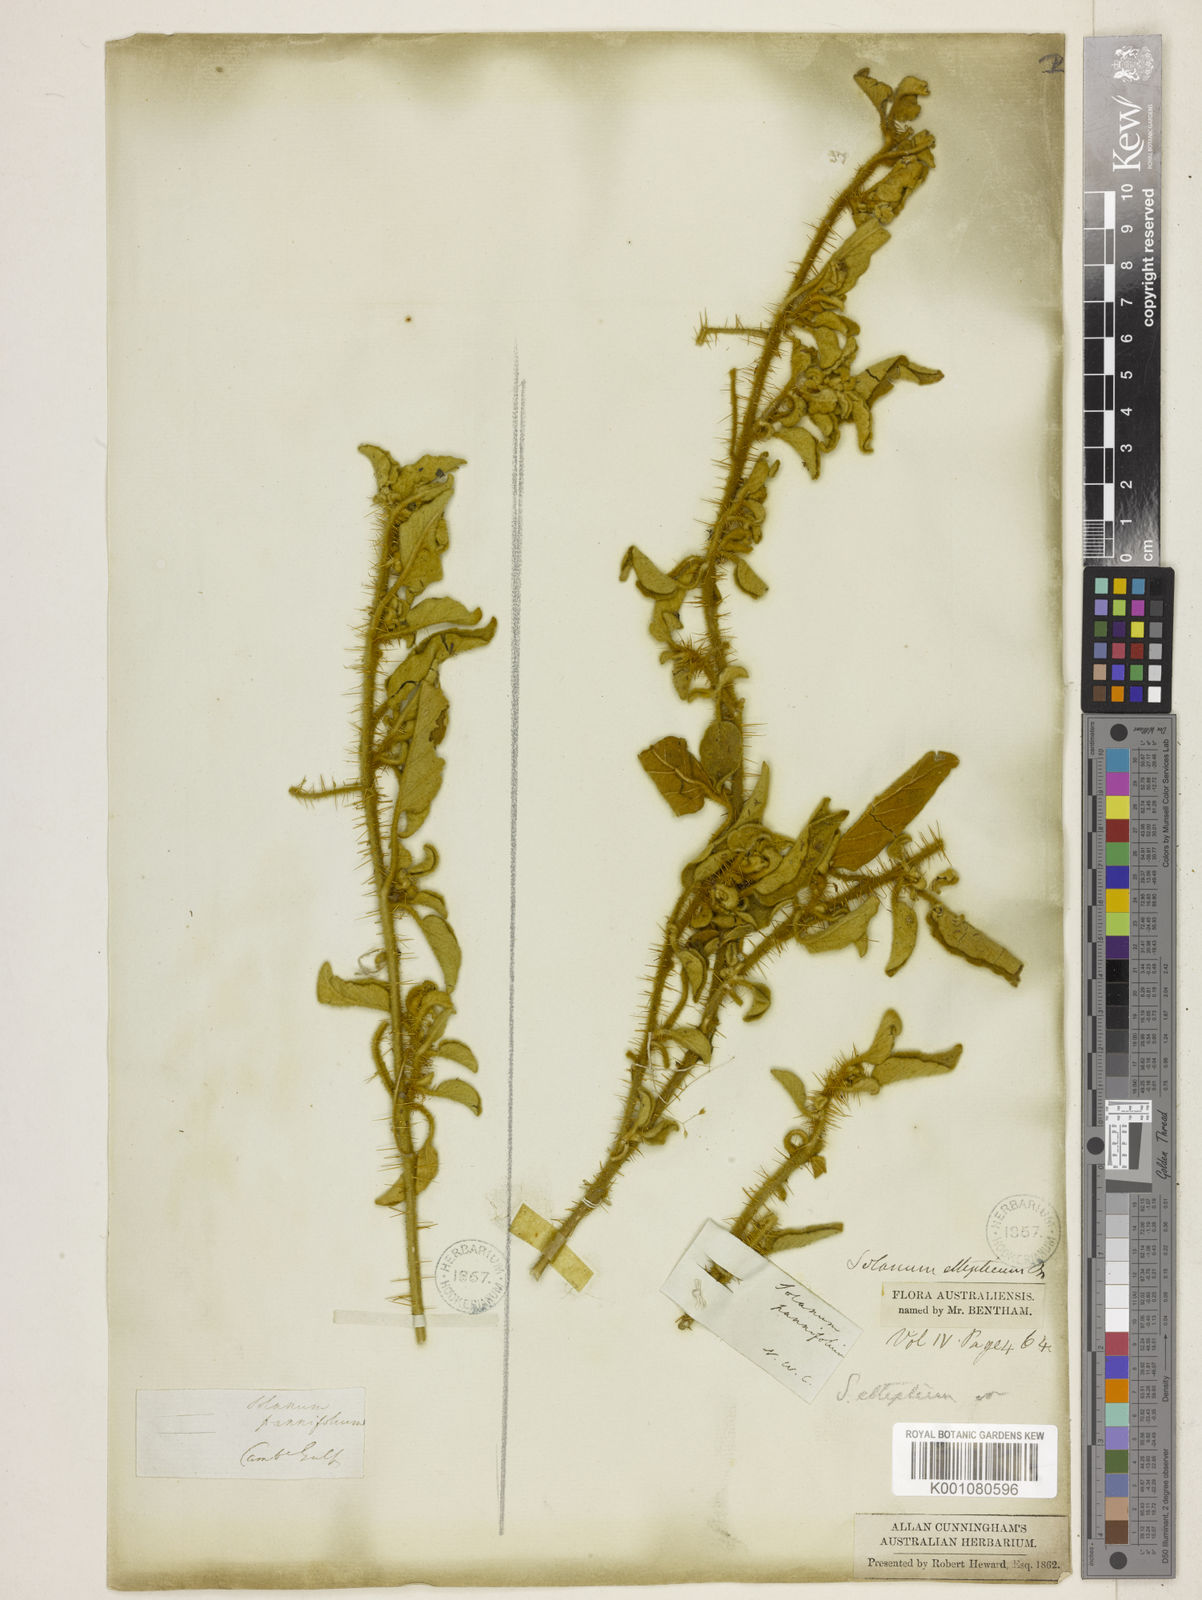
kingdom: Plantae
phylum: Tracheophyta
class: Magnoliopsida
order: Solanales
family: Solanaceae
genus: Solanum
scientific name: Solanum ellipticum
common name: Potato-bush
